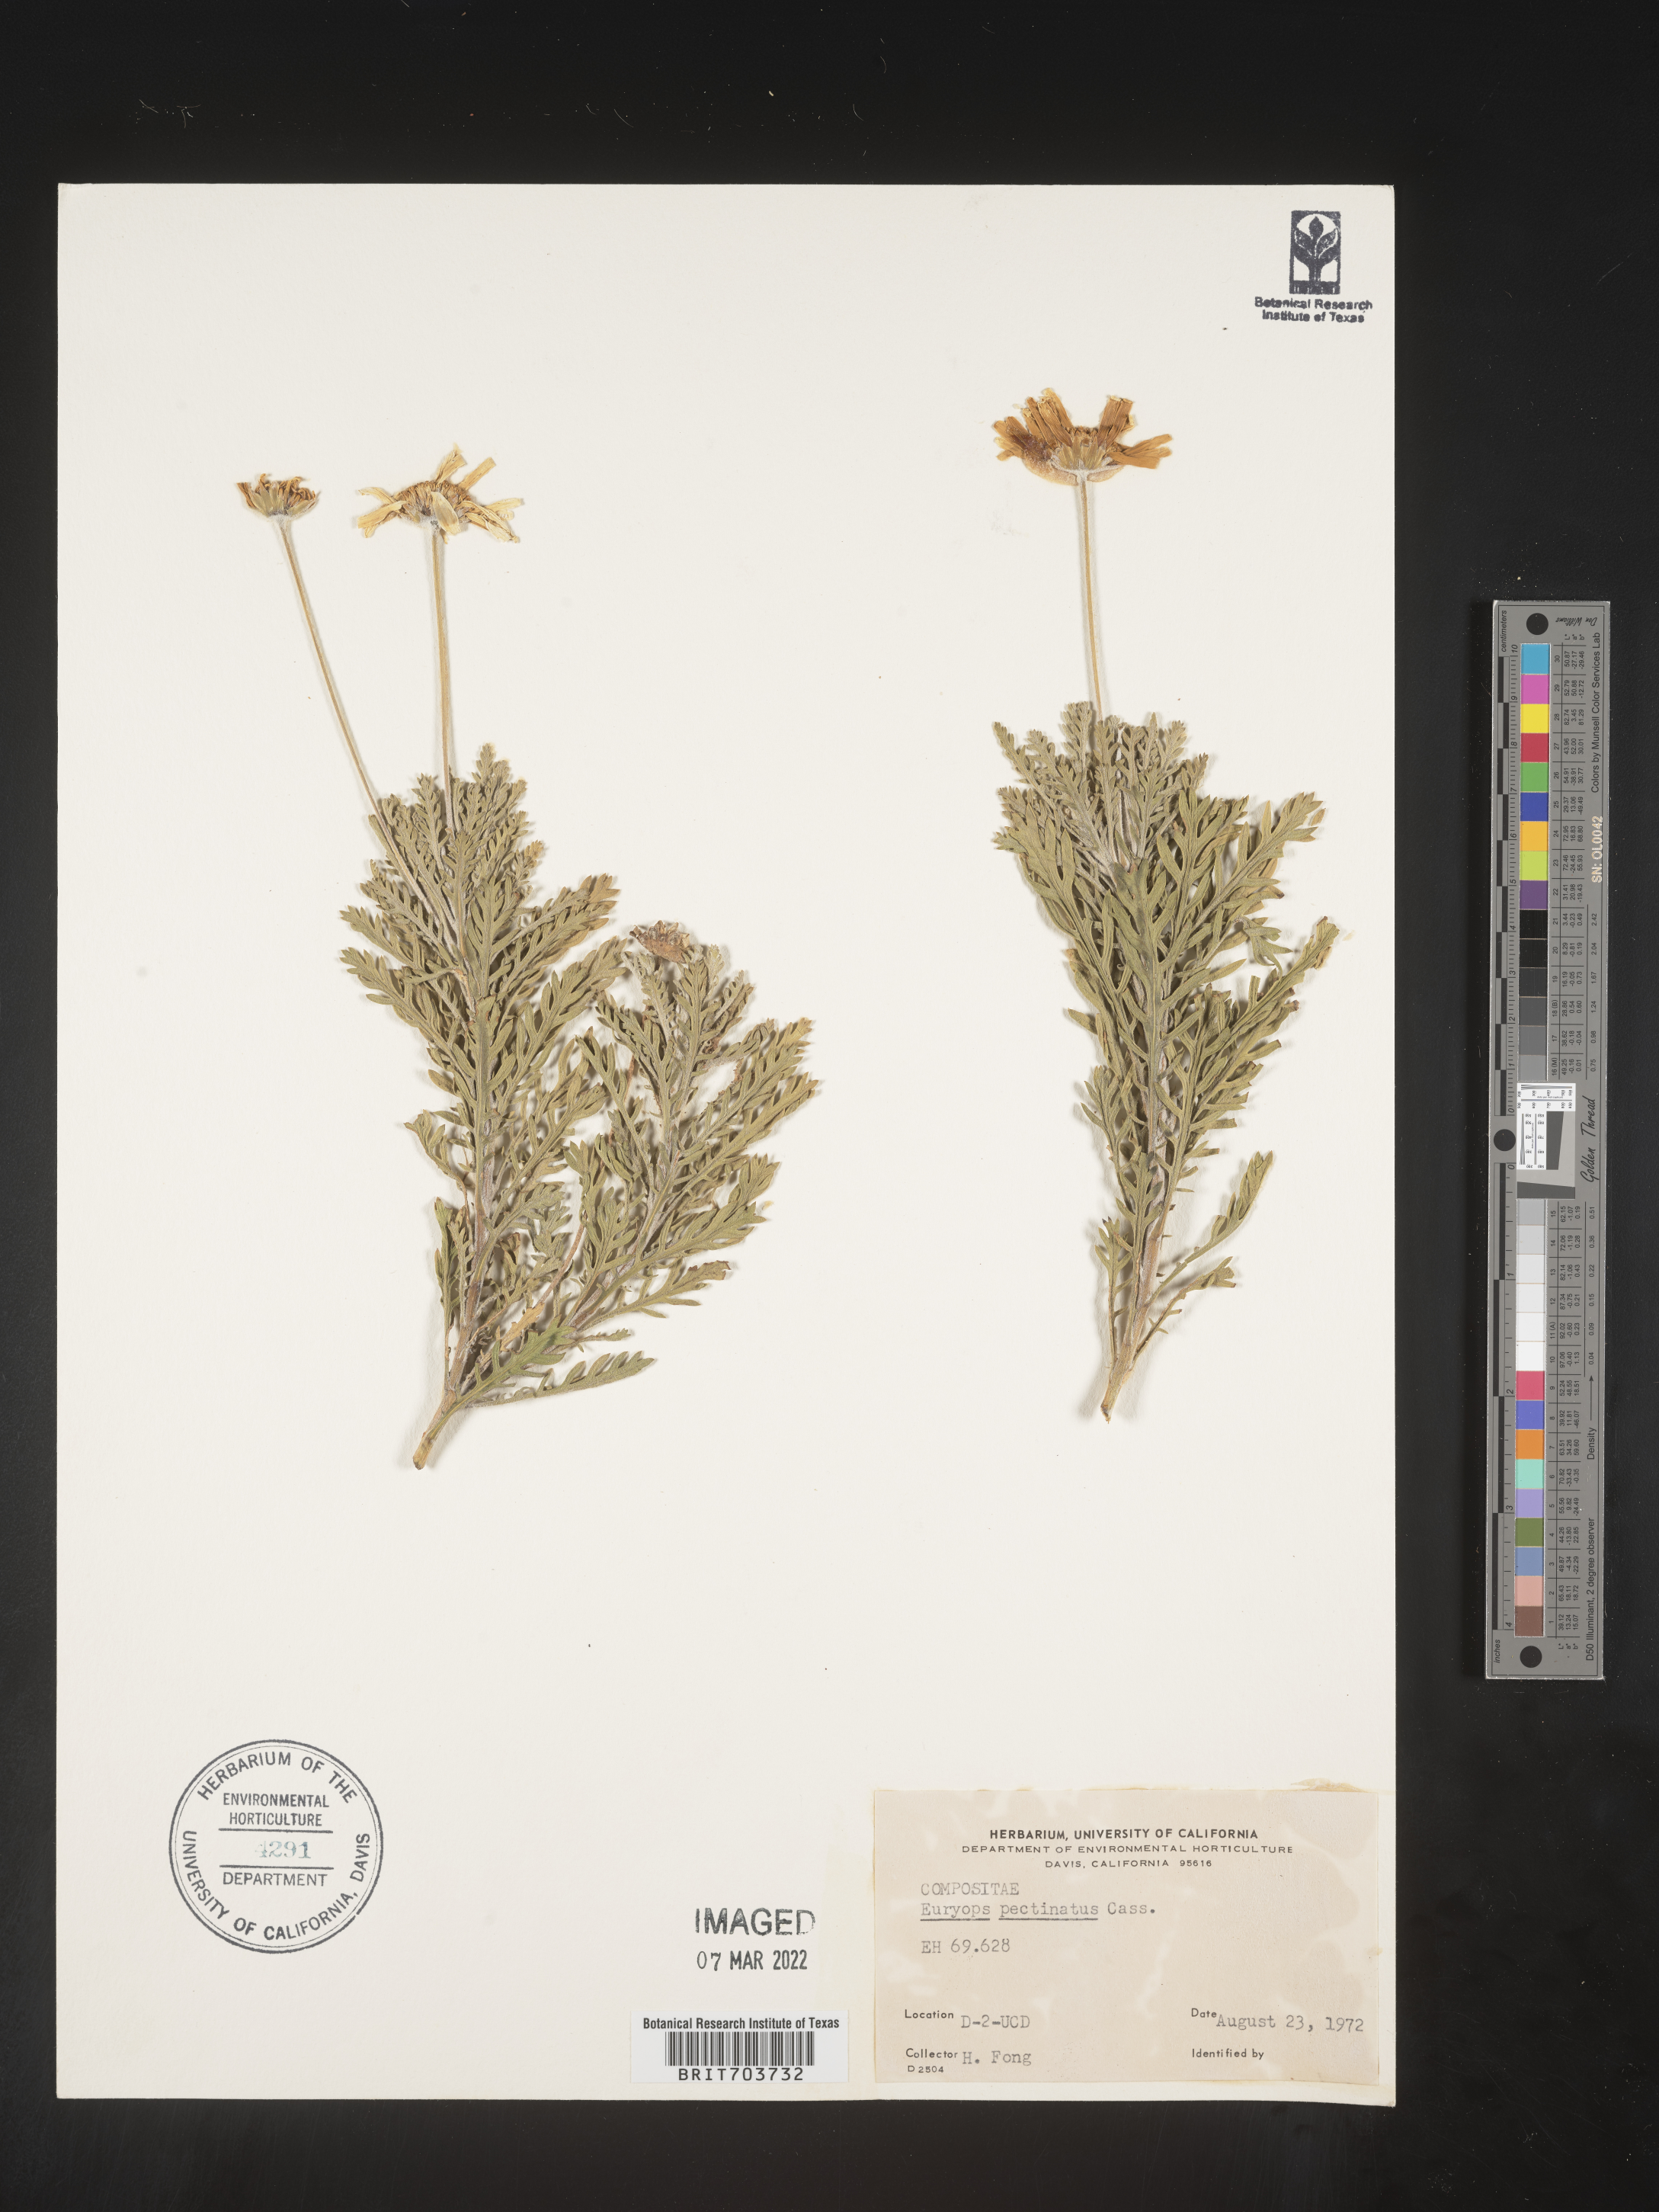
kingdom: Plantae
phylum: Tracheophyta
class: Magnoliopsida
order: Asterales
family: Asteraceae
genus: Euryops
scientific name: Euryops pectinatus
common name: Gray-leaf euryops
